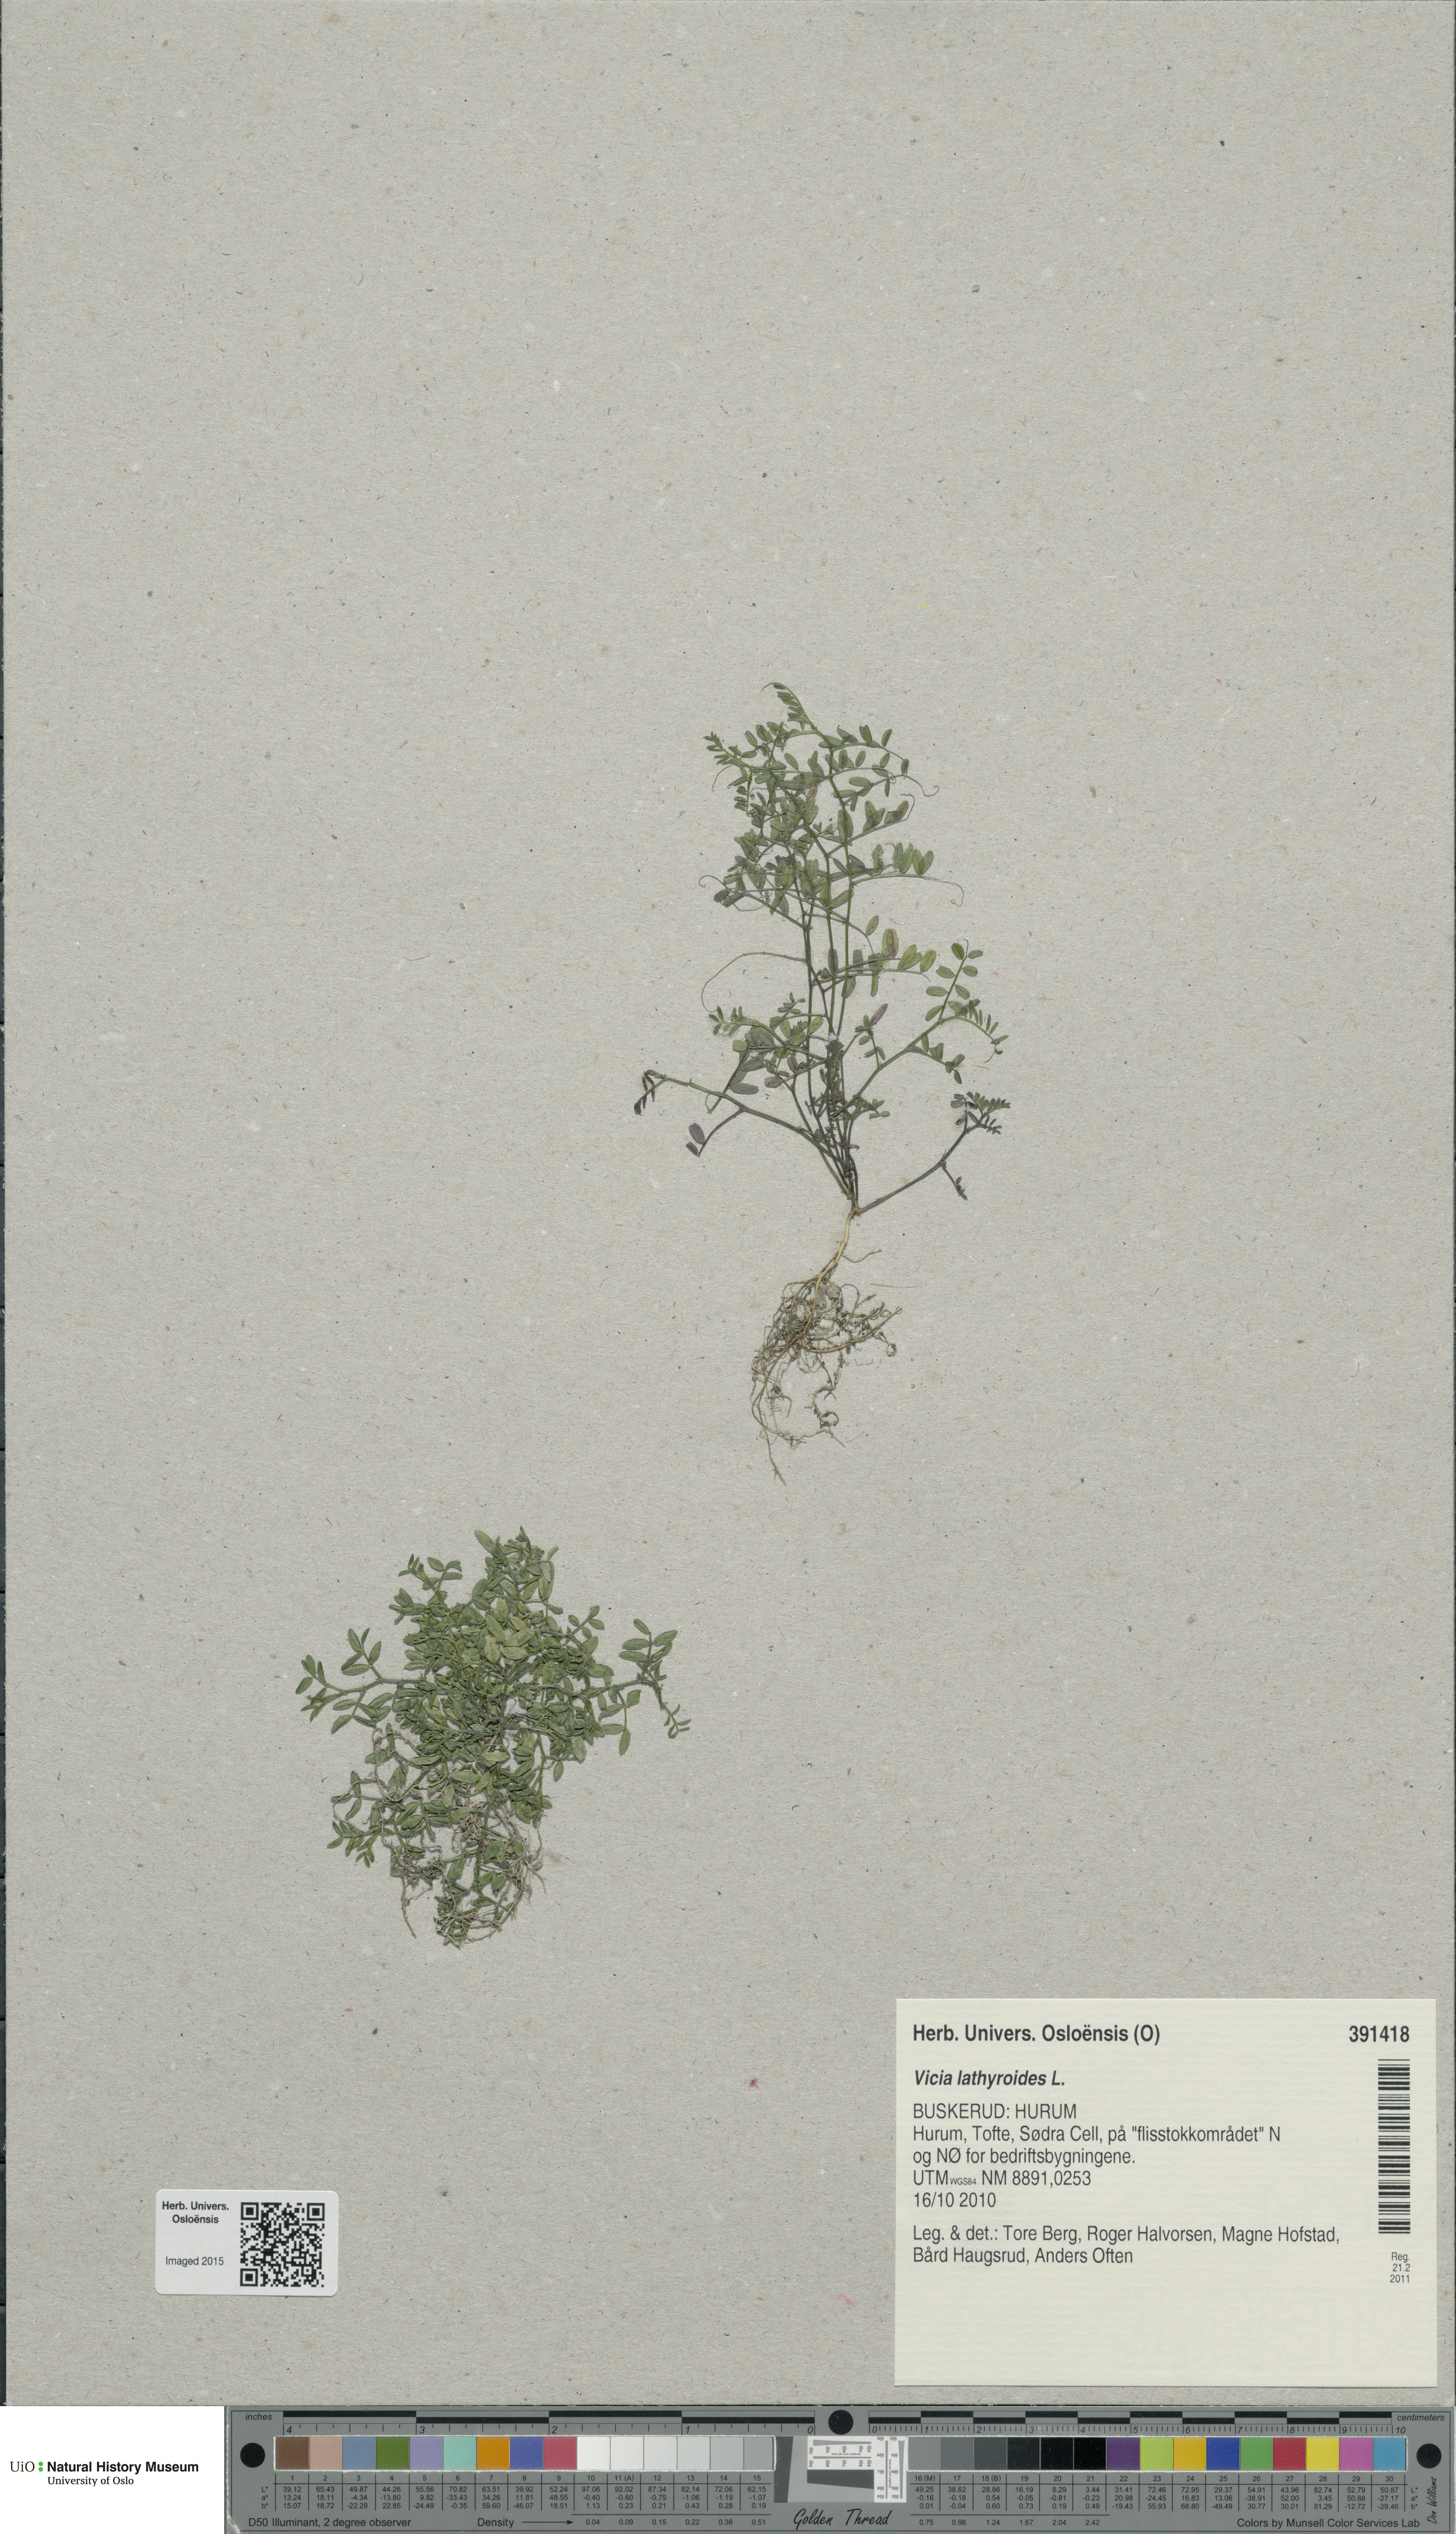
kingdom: Plantae
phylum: Tracheophyta
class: Magnoliopsida
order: Fabales
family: Fabaceae
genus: Vicia
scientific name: Vicia lathyroides
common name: Spring vetch
